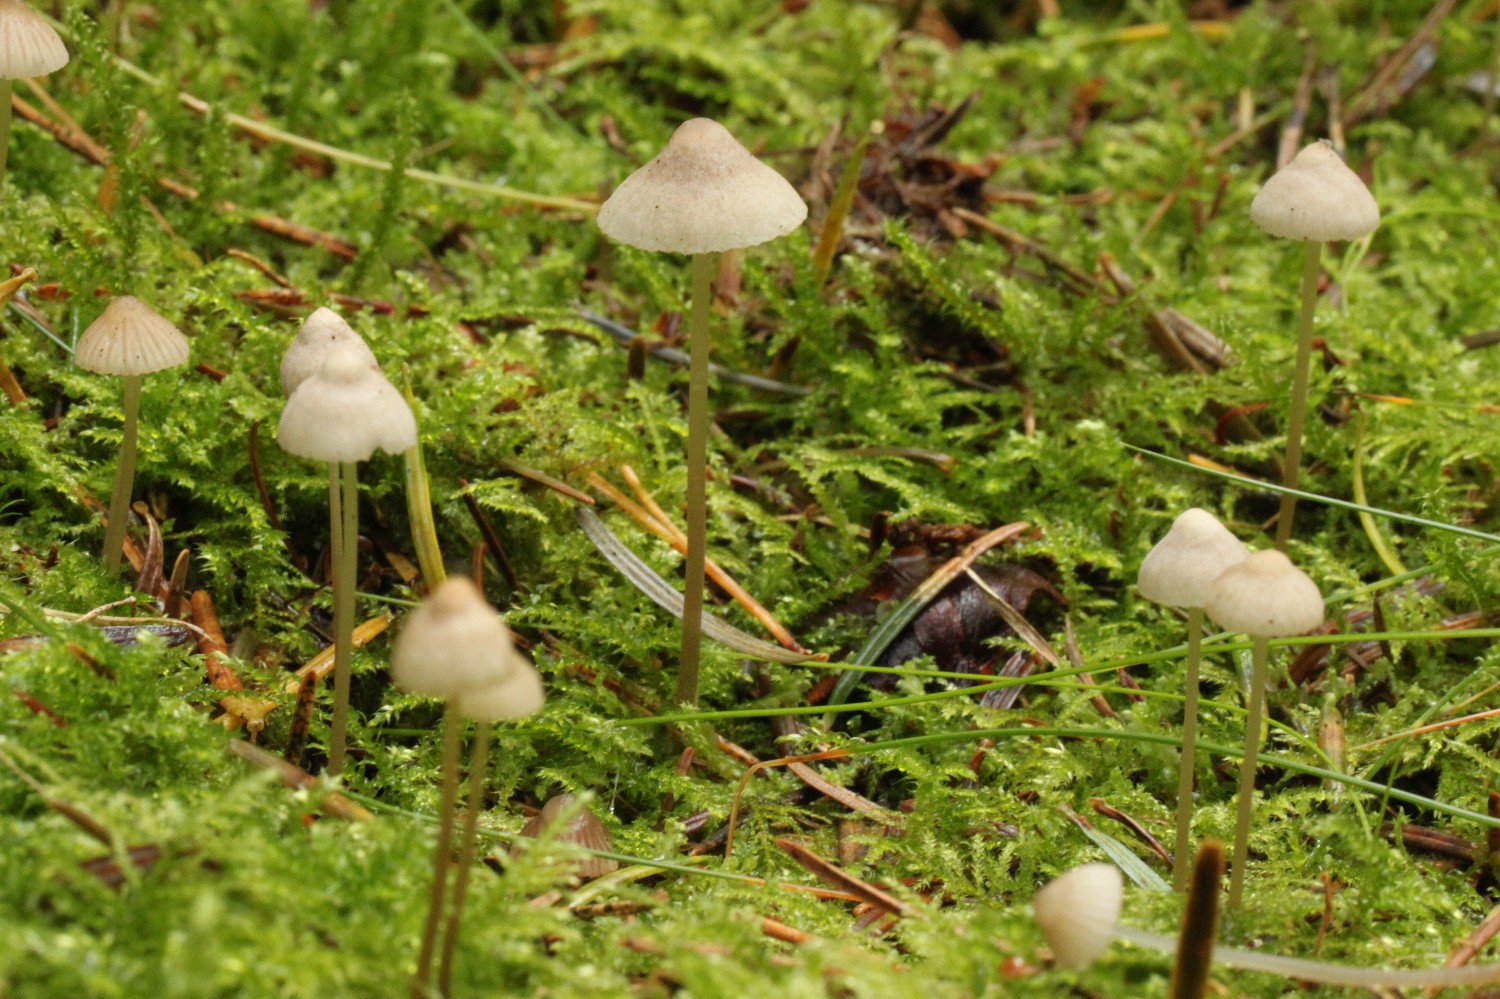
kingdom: Fungi
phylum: Basidiomycota
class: Agaricomycetes
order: Agaricales
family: Mycenaceae
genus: Mycena
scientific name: Mycena capillaripes
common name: nåle-huesvamp
